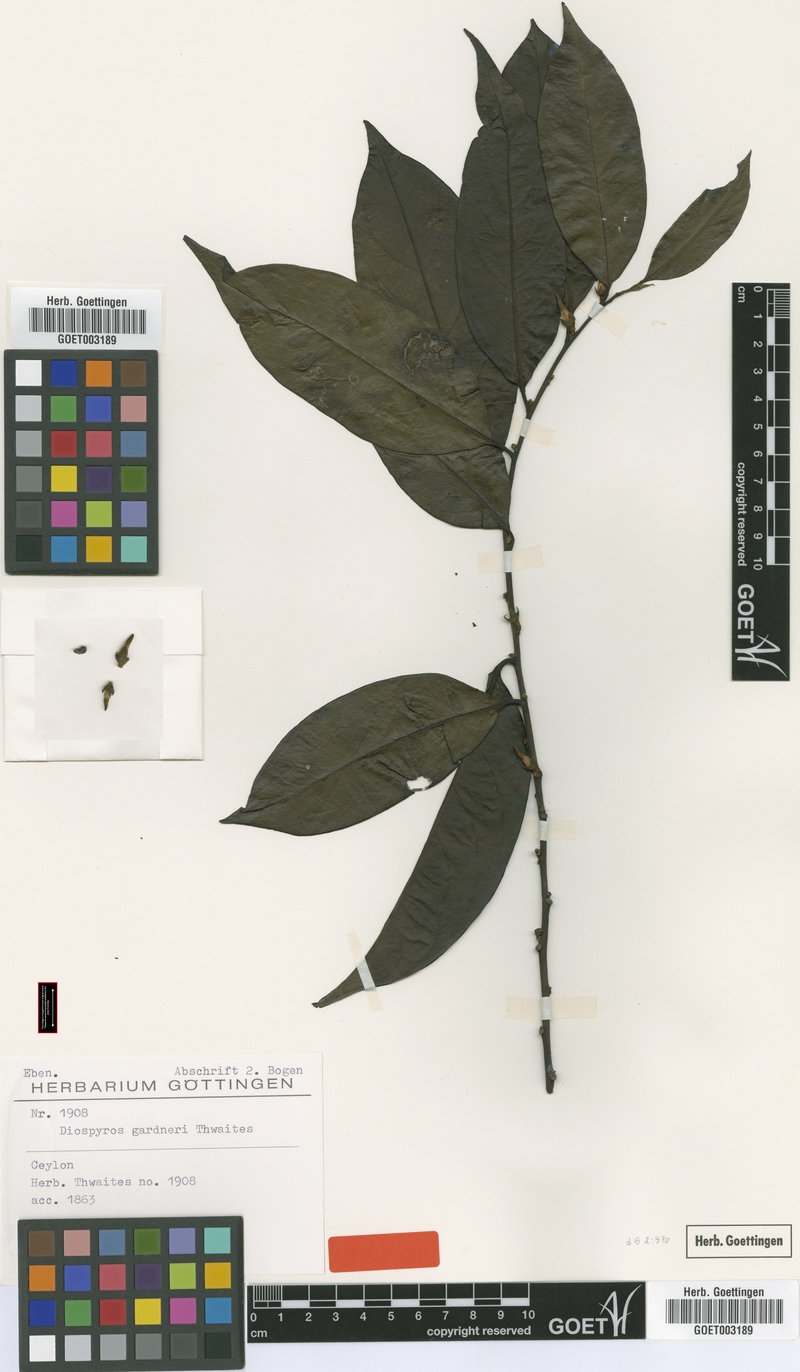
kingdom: Plantae
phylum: Tracheophyta
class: Magnoliopsida
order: Ericales
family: Ebenaceae
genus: Diospyros
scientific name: Diospyros walkeri
